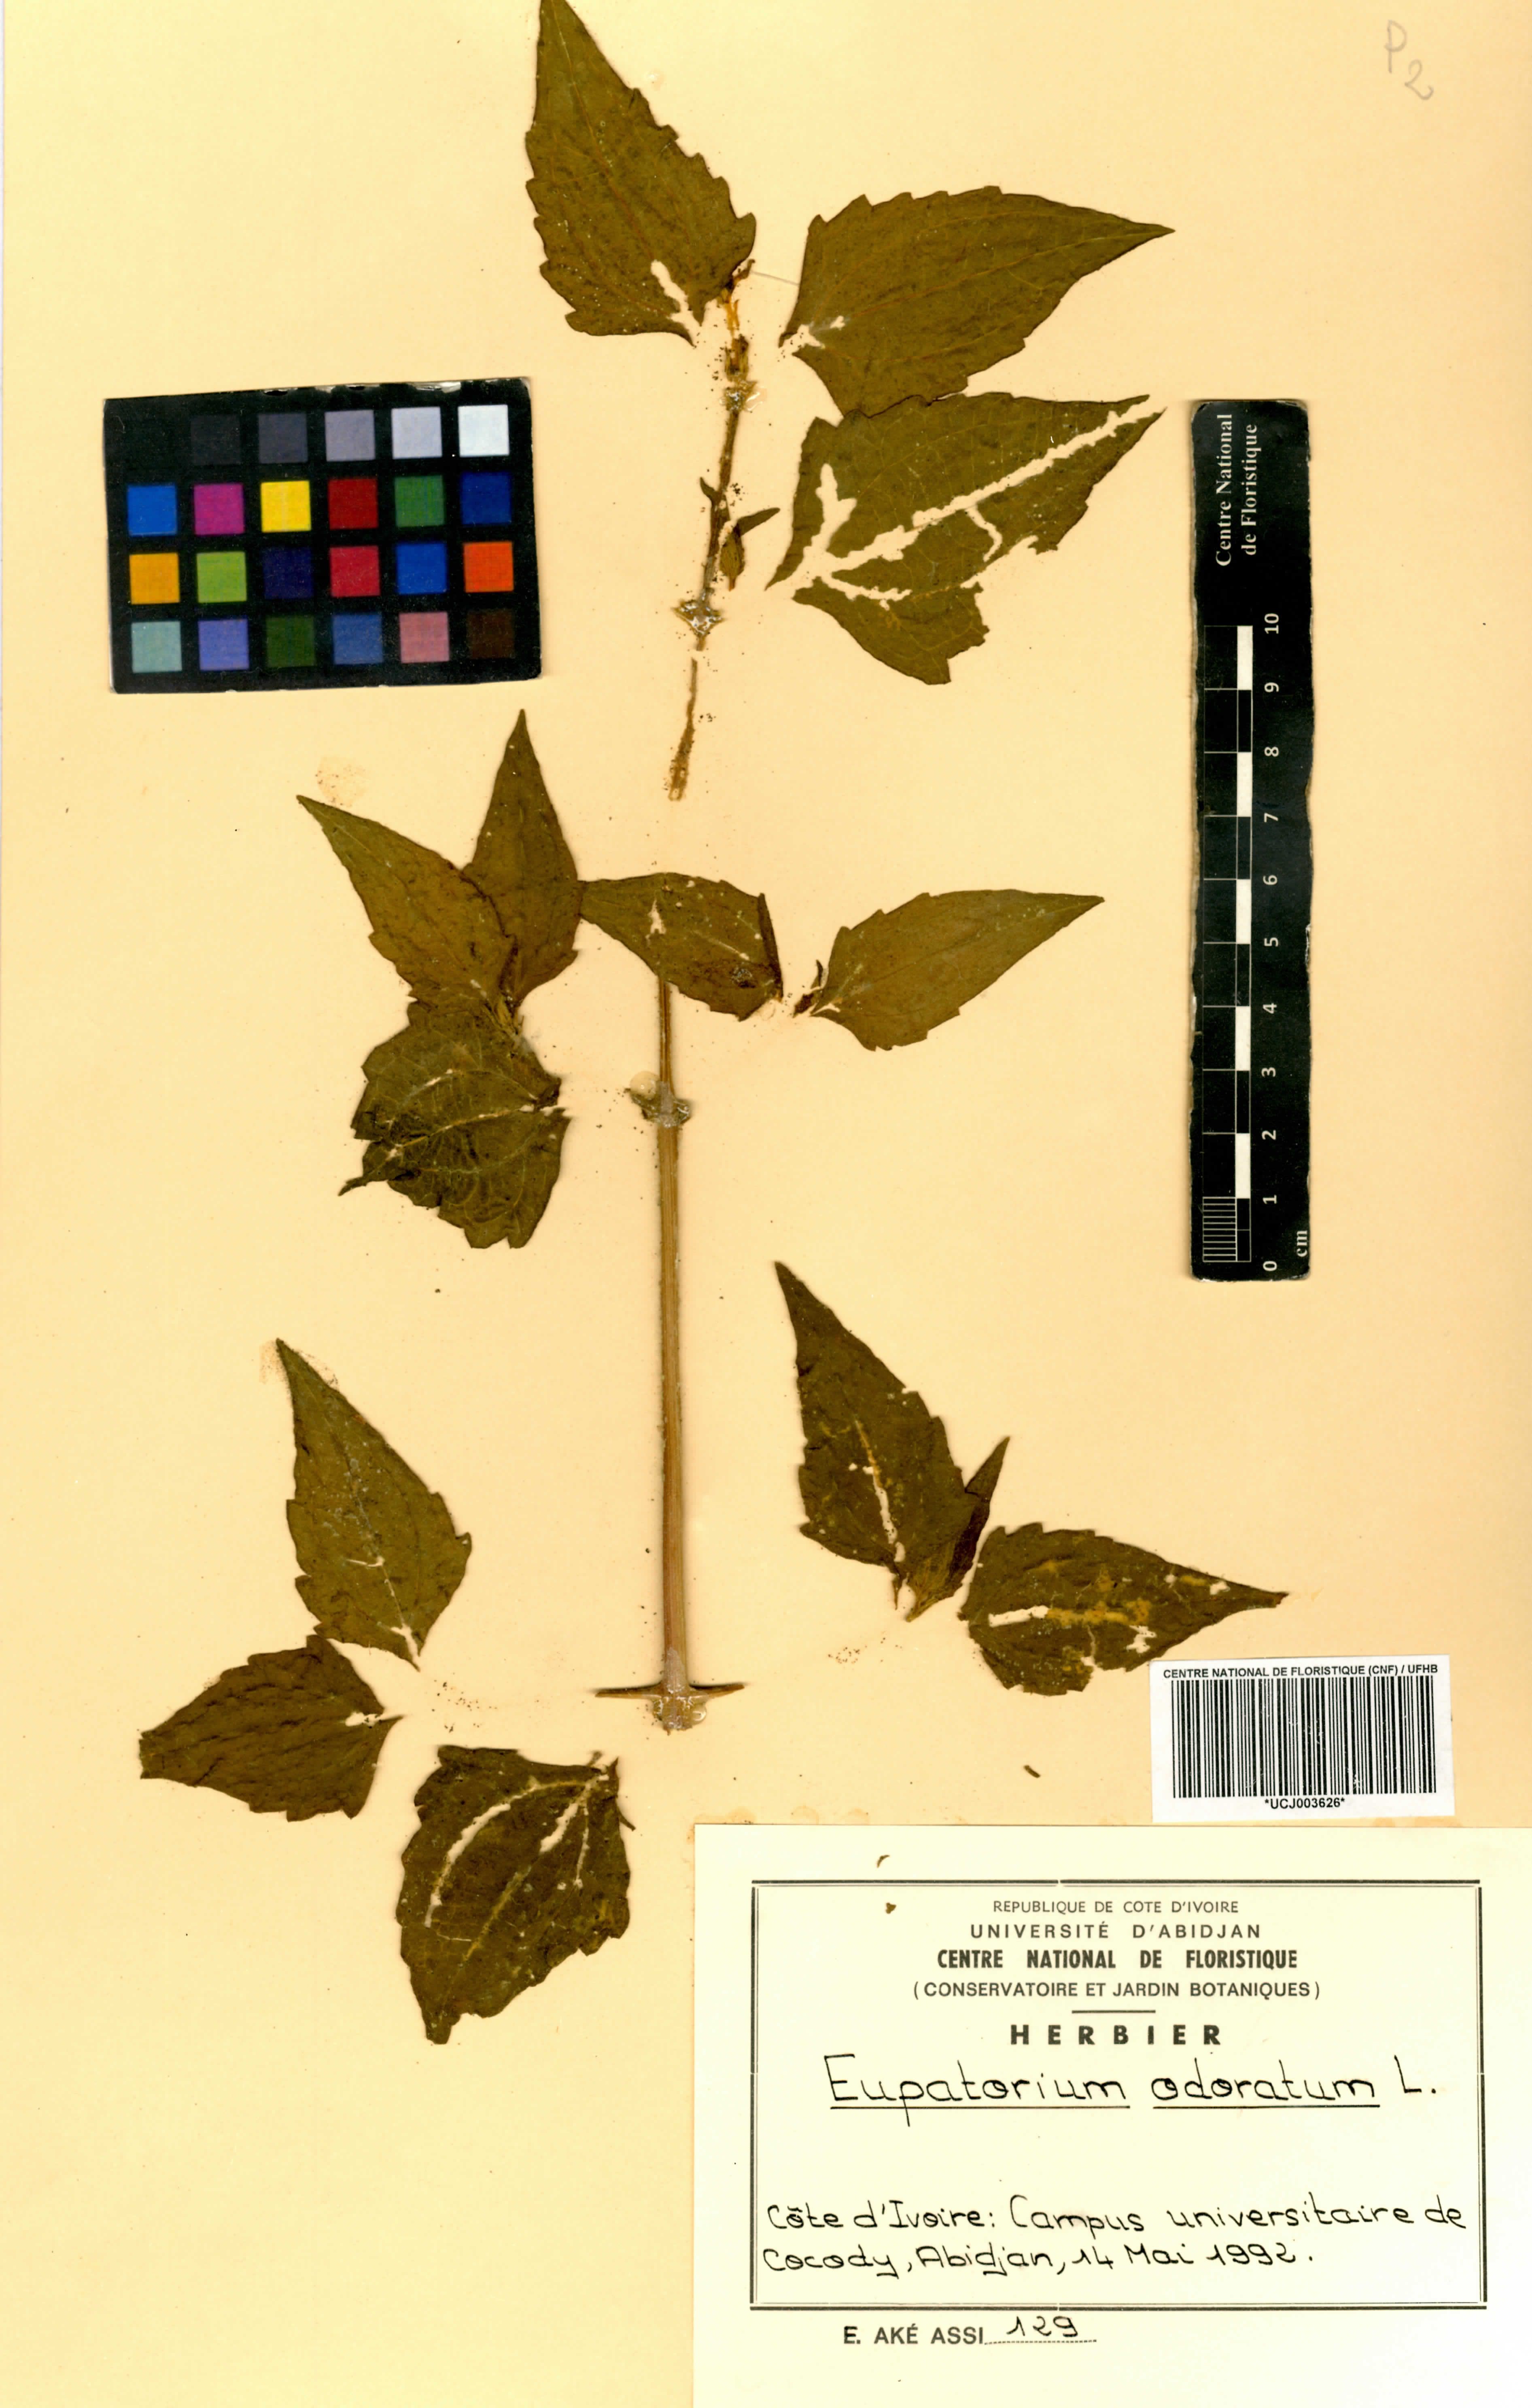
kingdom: Plantae
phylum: Tracheophyta
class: Magnoliopsida
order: Asterales
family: Asteraceae
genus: Chromolaena
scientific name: Chromolaena odorata
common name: Siamweed
